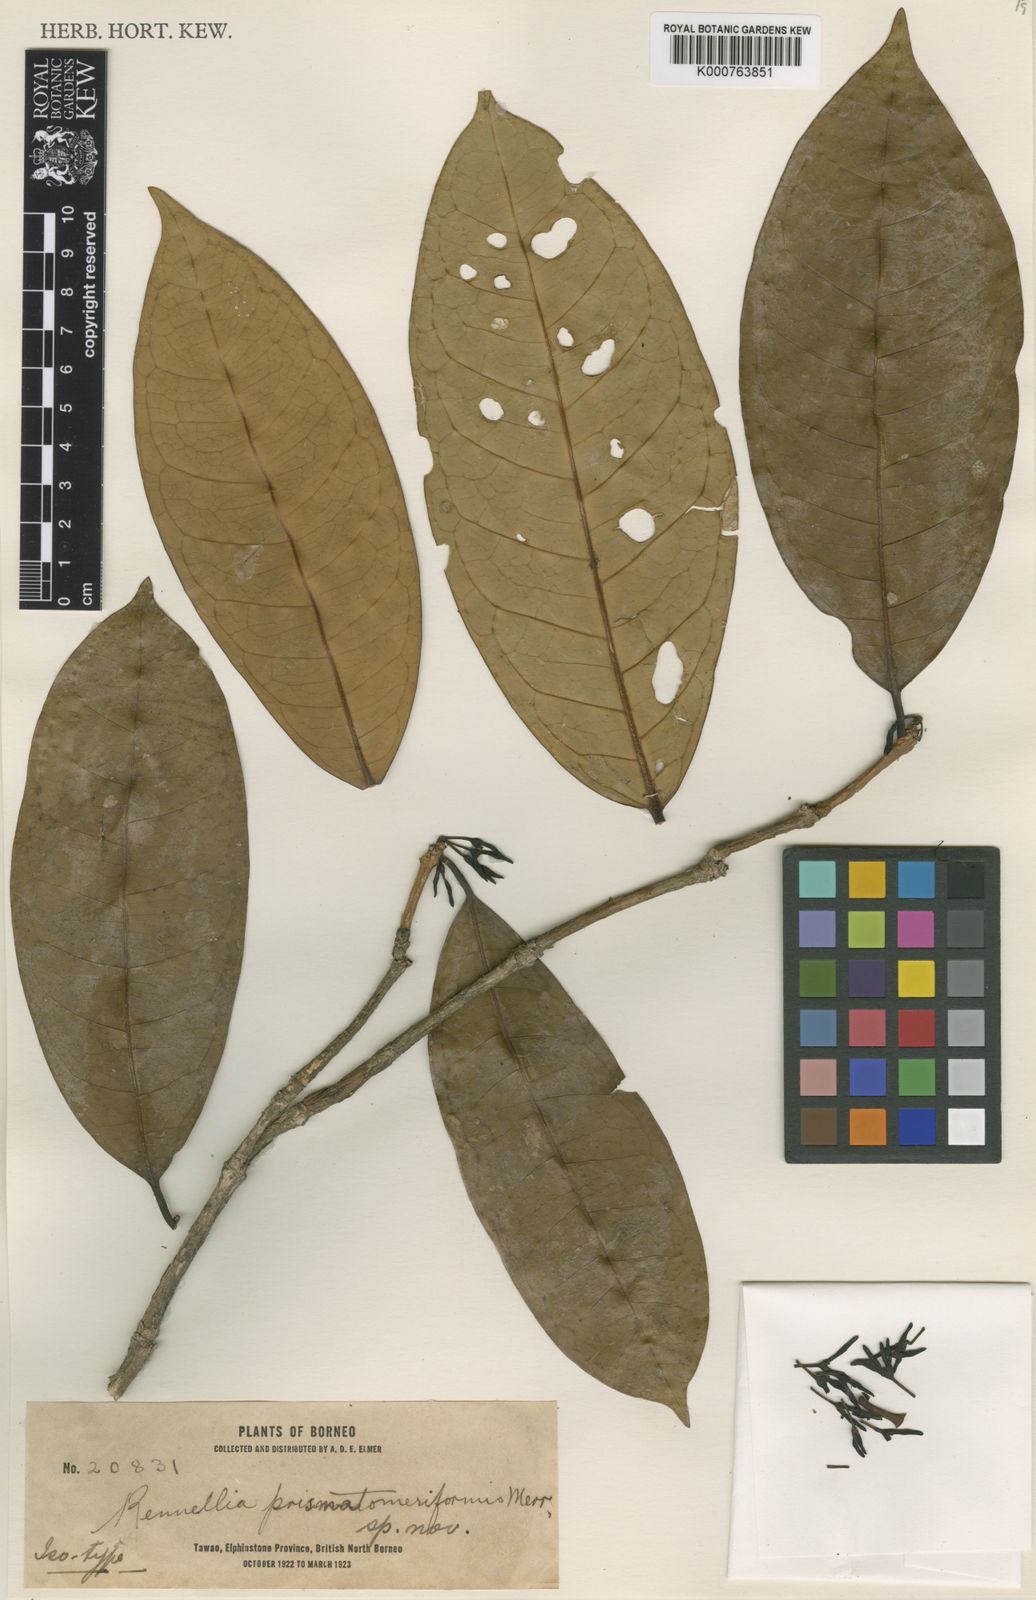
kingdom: Plantae
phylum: Tracheophyta
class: Magnoliopsida
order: Gentianales
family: Rubiaceae
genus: Prismatomeris
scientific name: Prismatomeris
